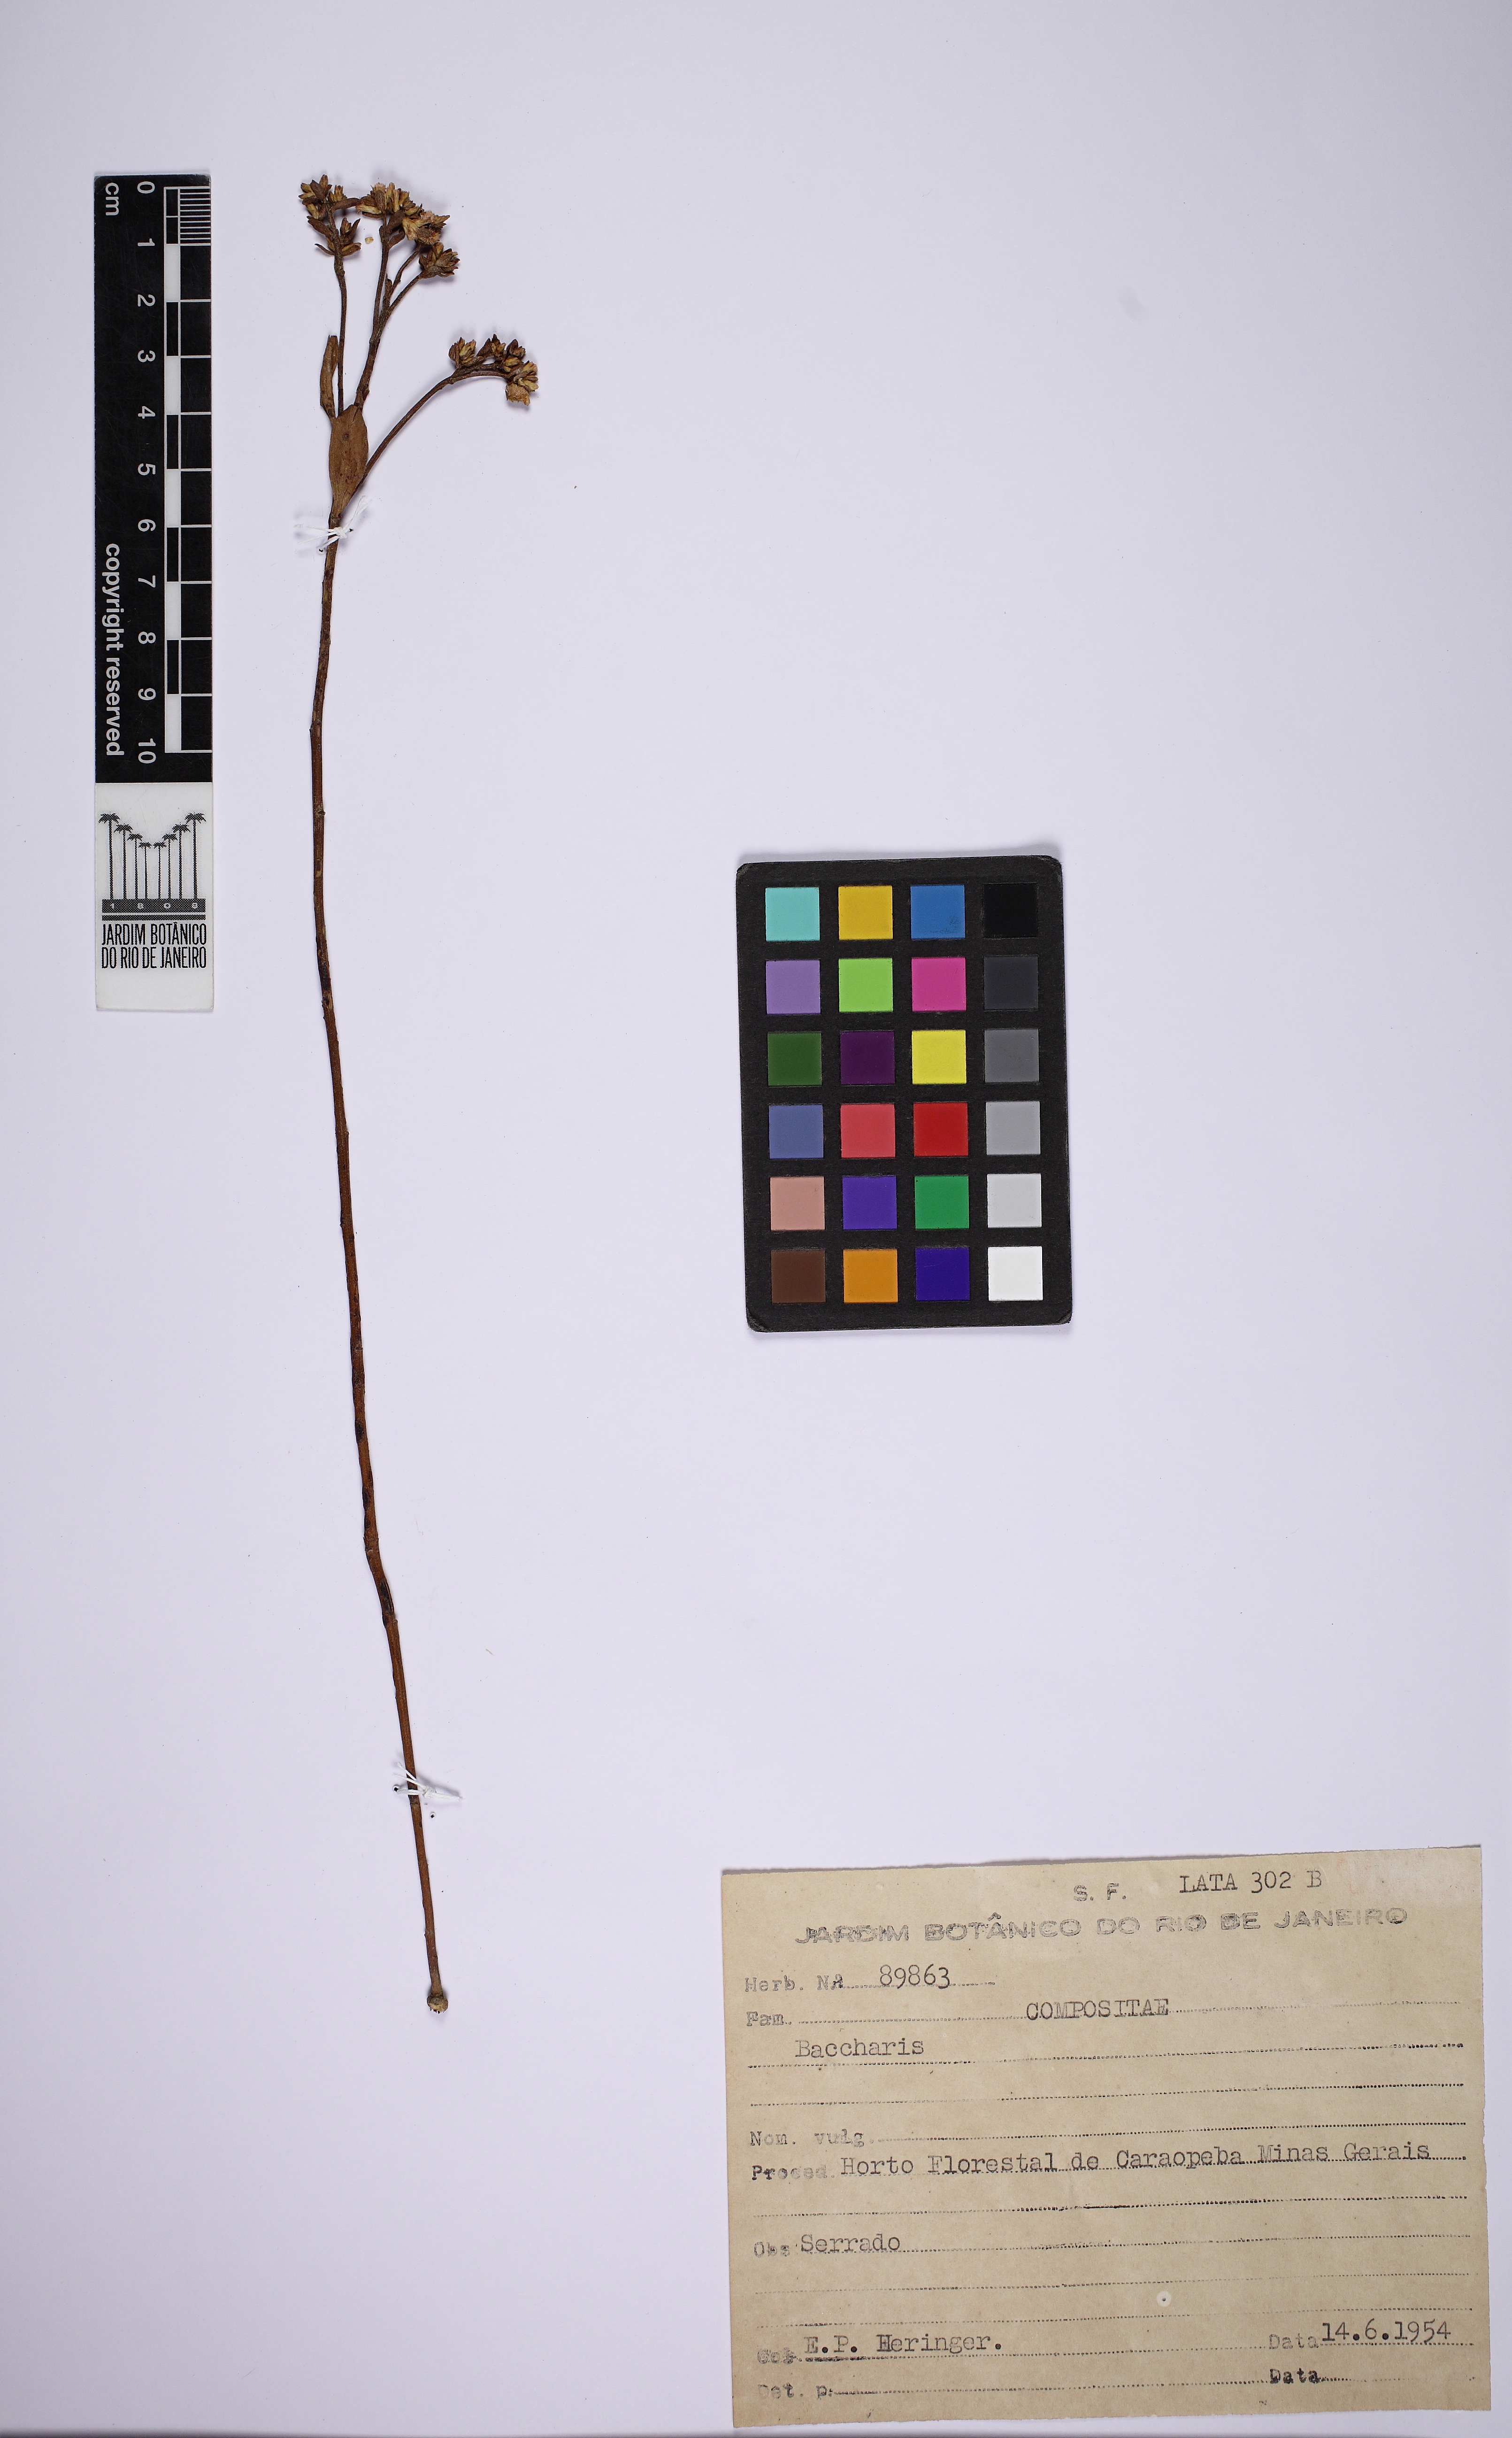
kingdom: Plantae
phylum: Tracheophyta
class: Magnoliopsida
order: Asterales
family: Asteraceae
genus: Baccharis
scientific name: Baccharis subdentata
